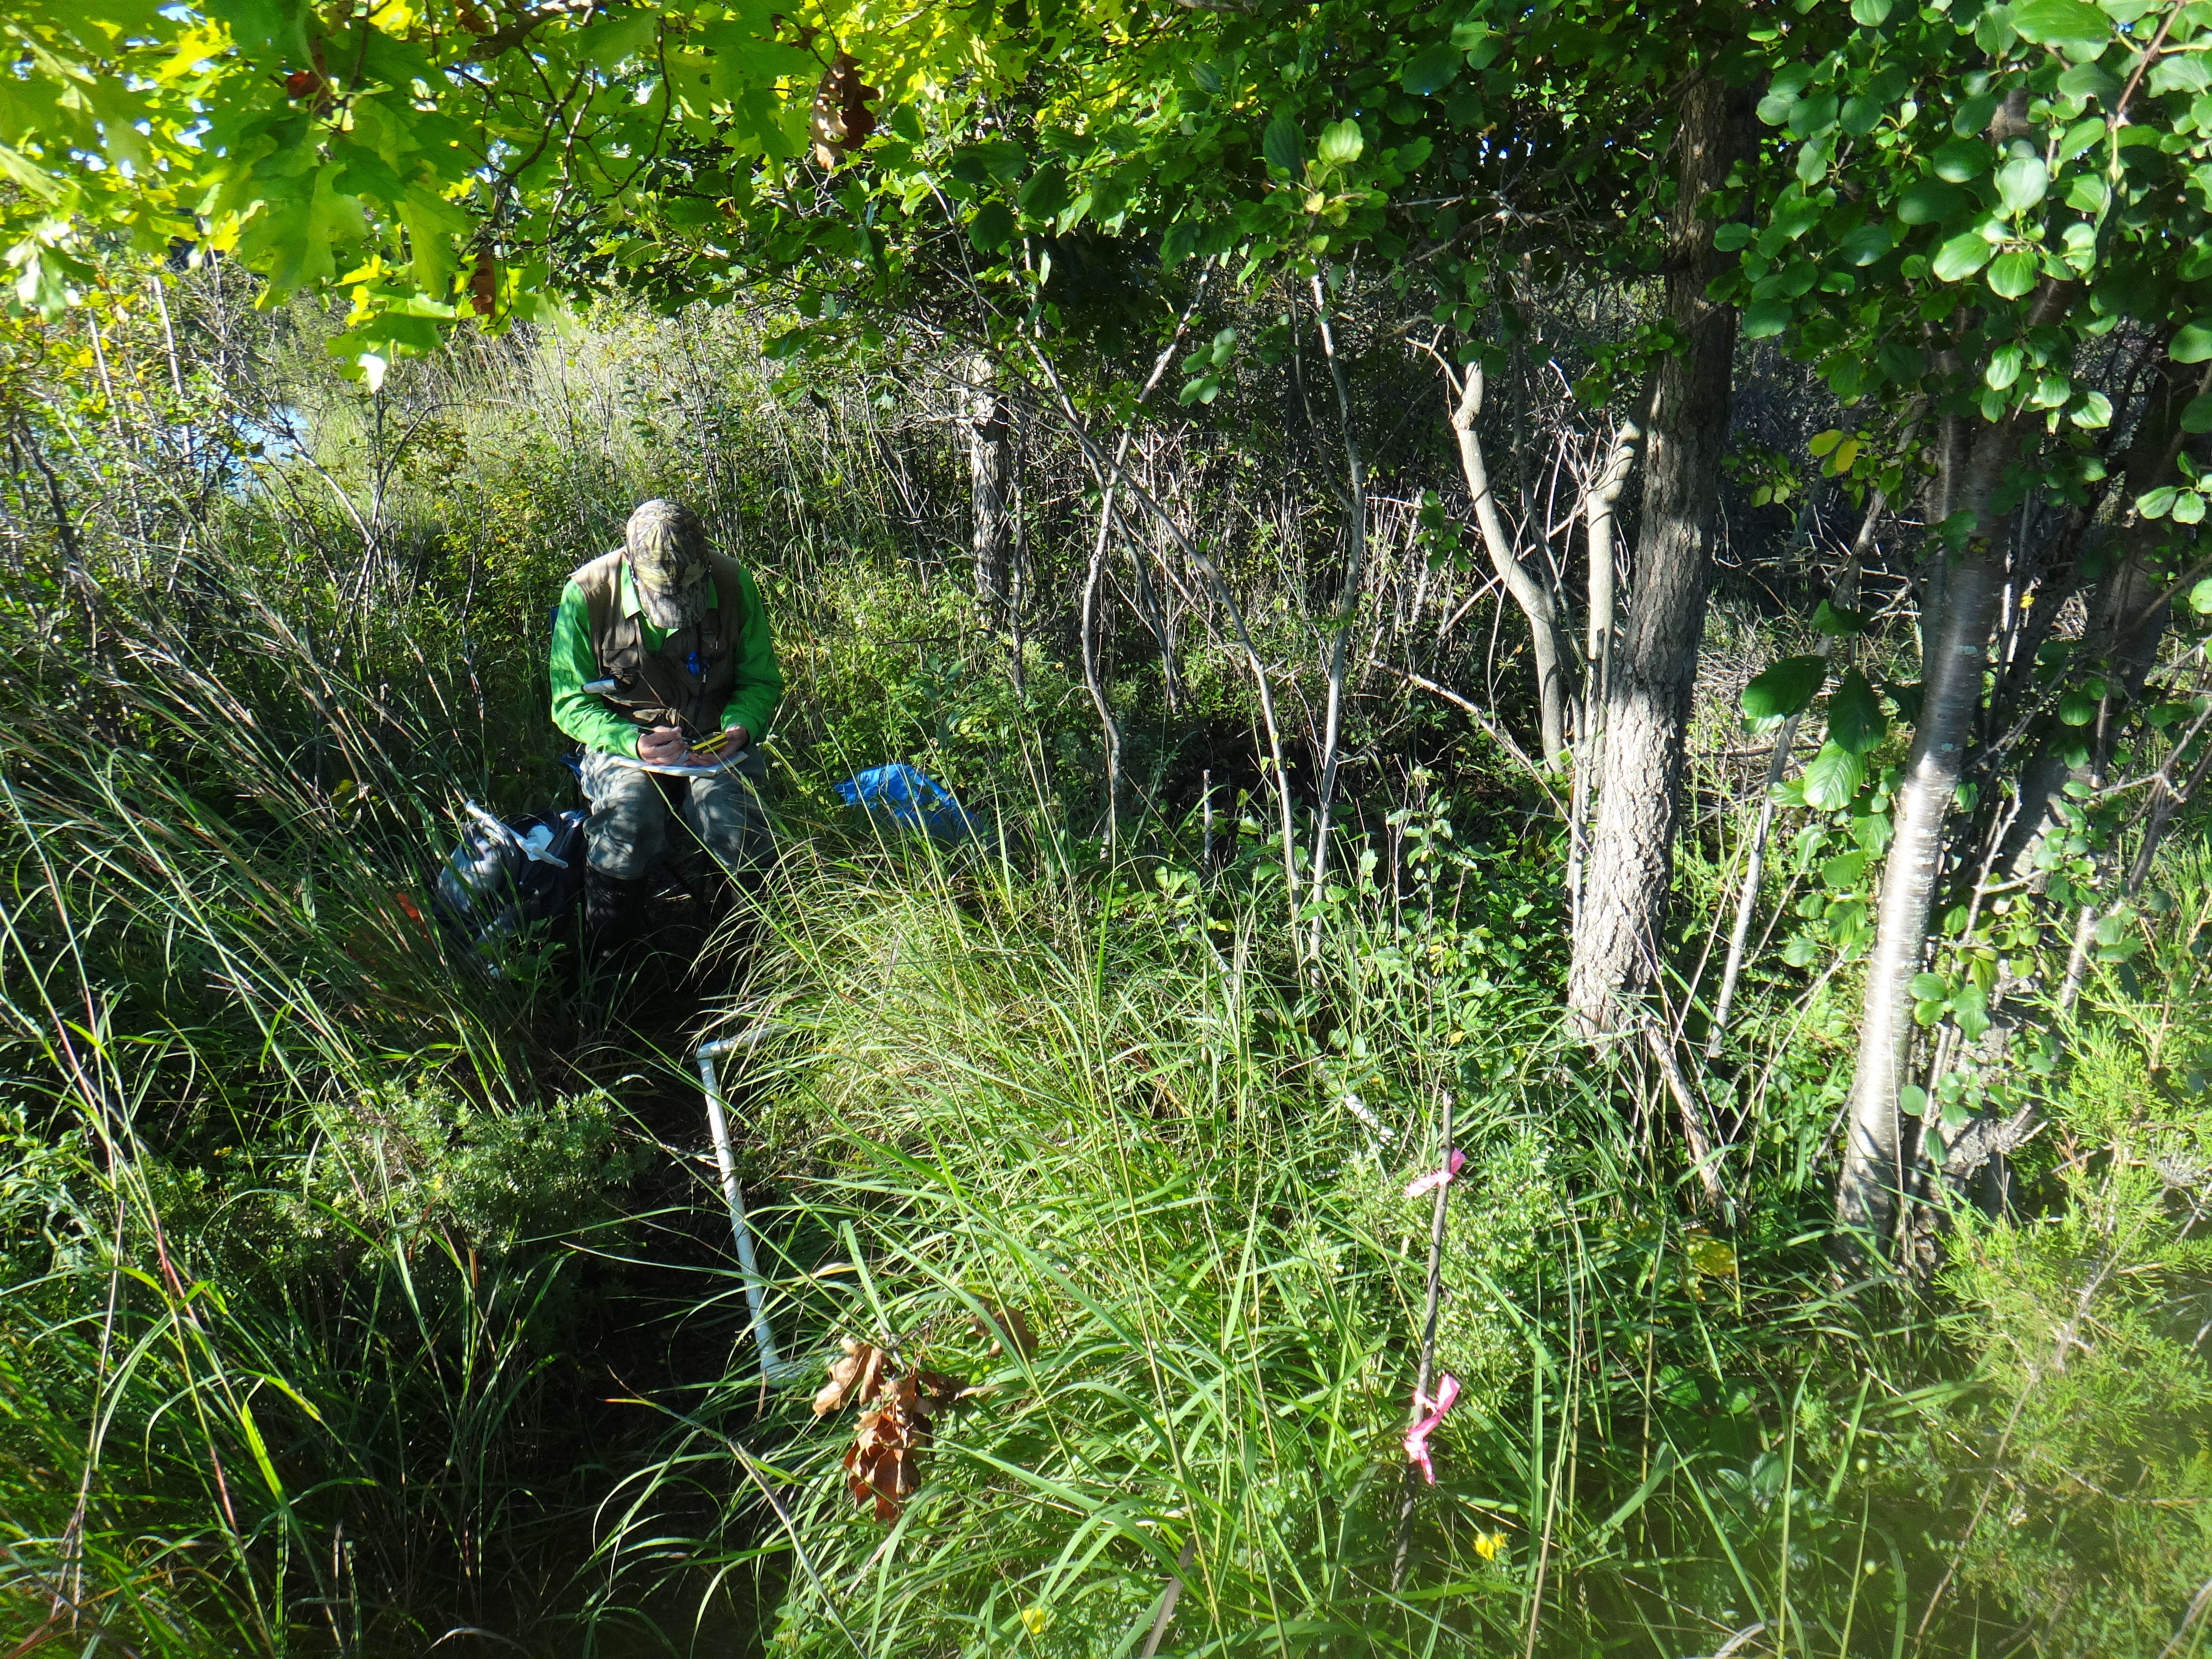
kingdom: Plantae
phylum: Tracheophyta
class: Magnoliopsida
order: Lamiales
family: Lamiaceae
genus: Pycnanthemum
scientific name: Pycnanthemum virginianum
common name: Virginia mountain-mint
